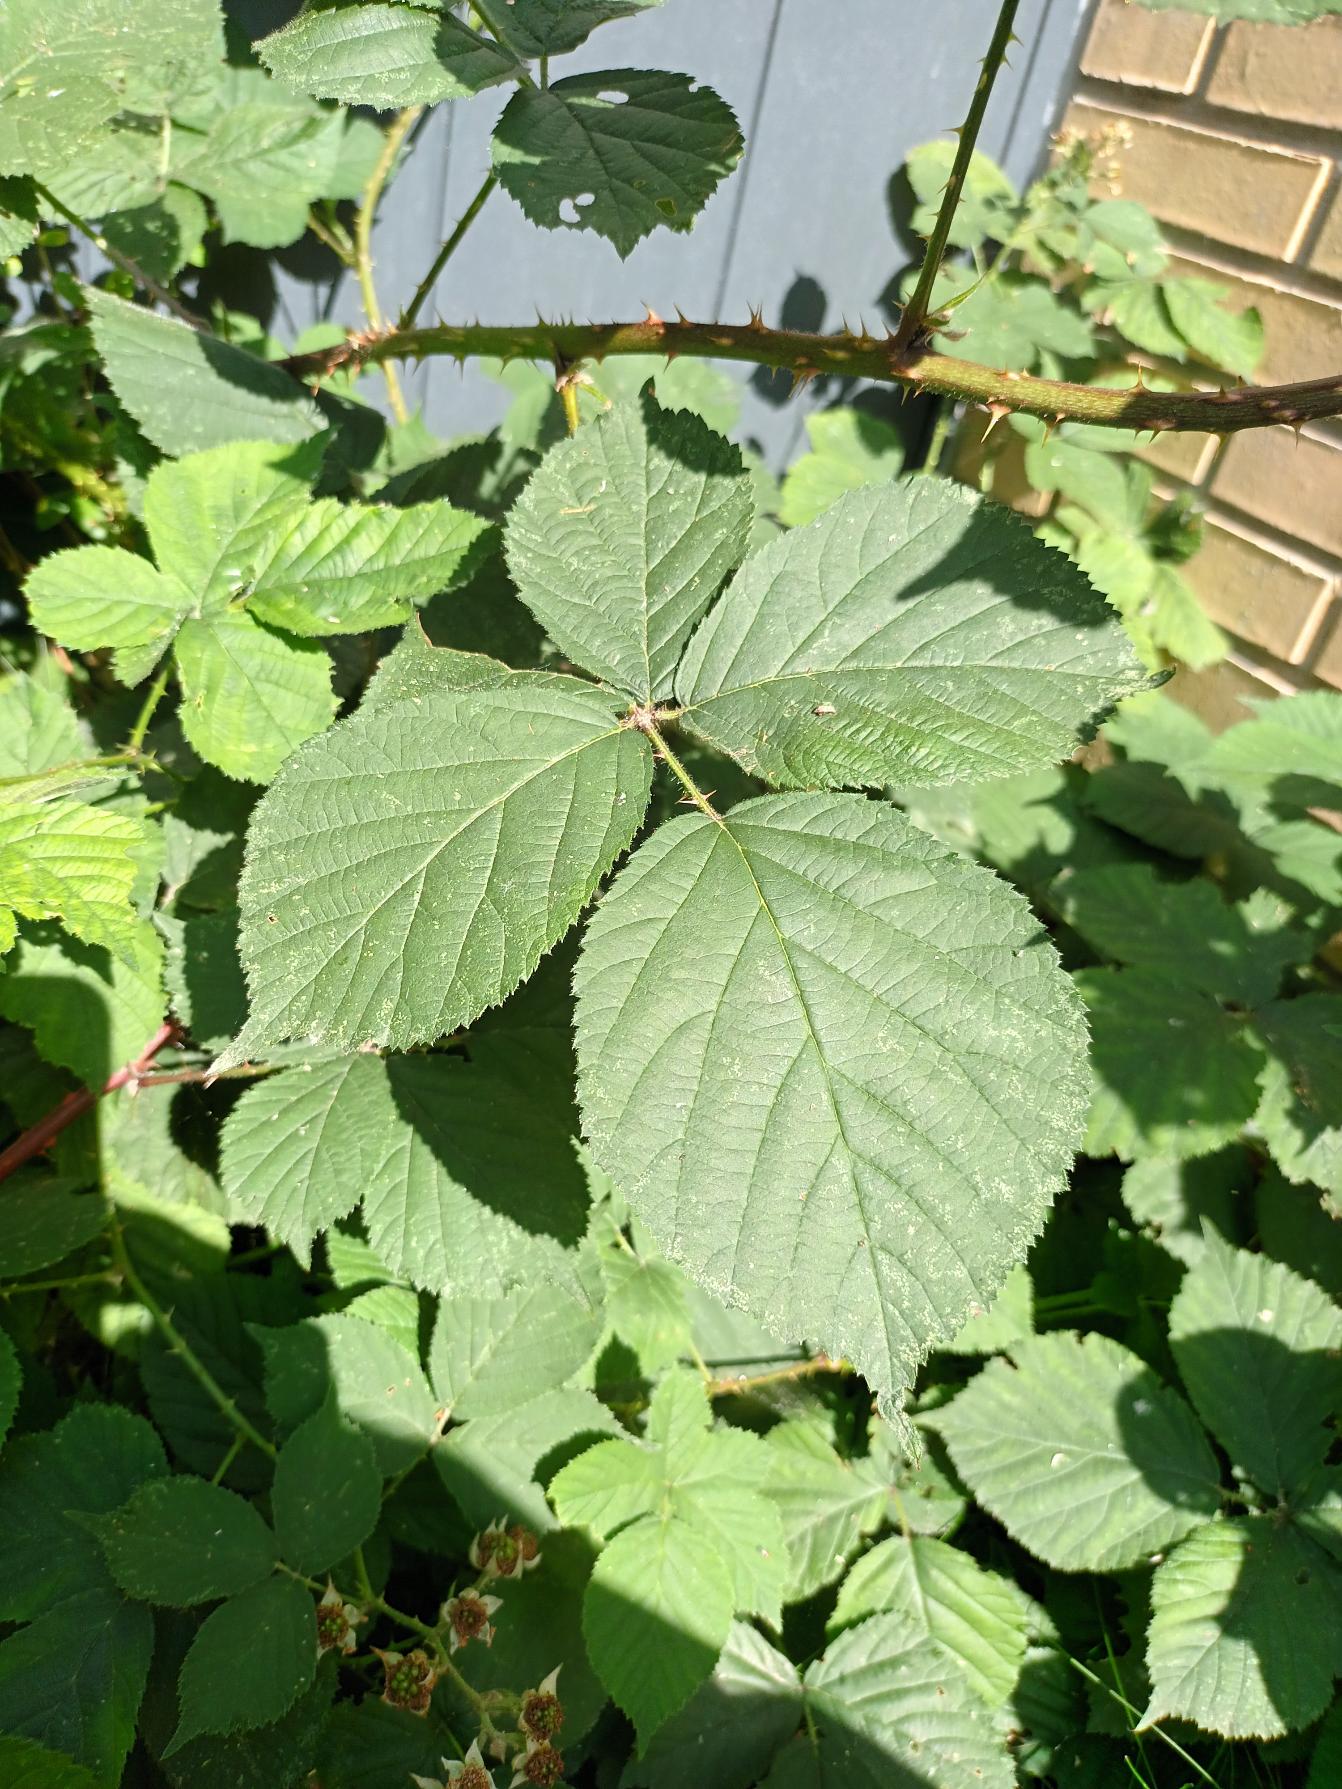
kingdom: Plantae
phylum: Tracheophyta
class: Magnoliopsida
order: Rosales
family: Rosaceae
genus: Rubus
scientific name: Rubus fabrimontanus
